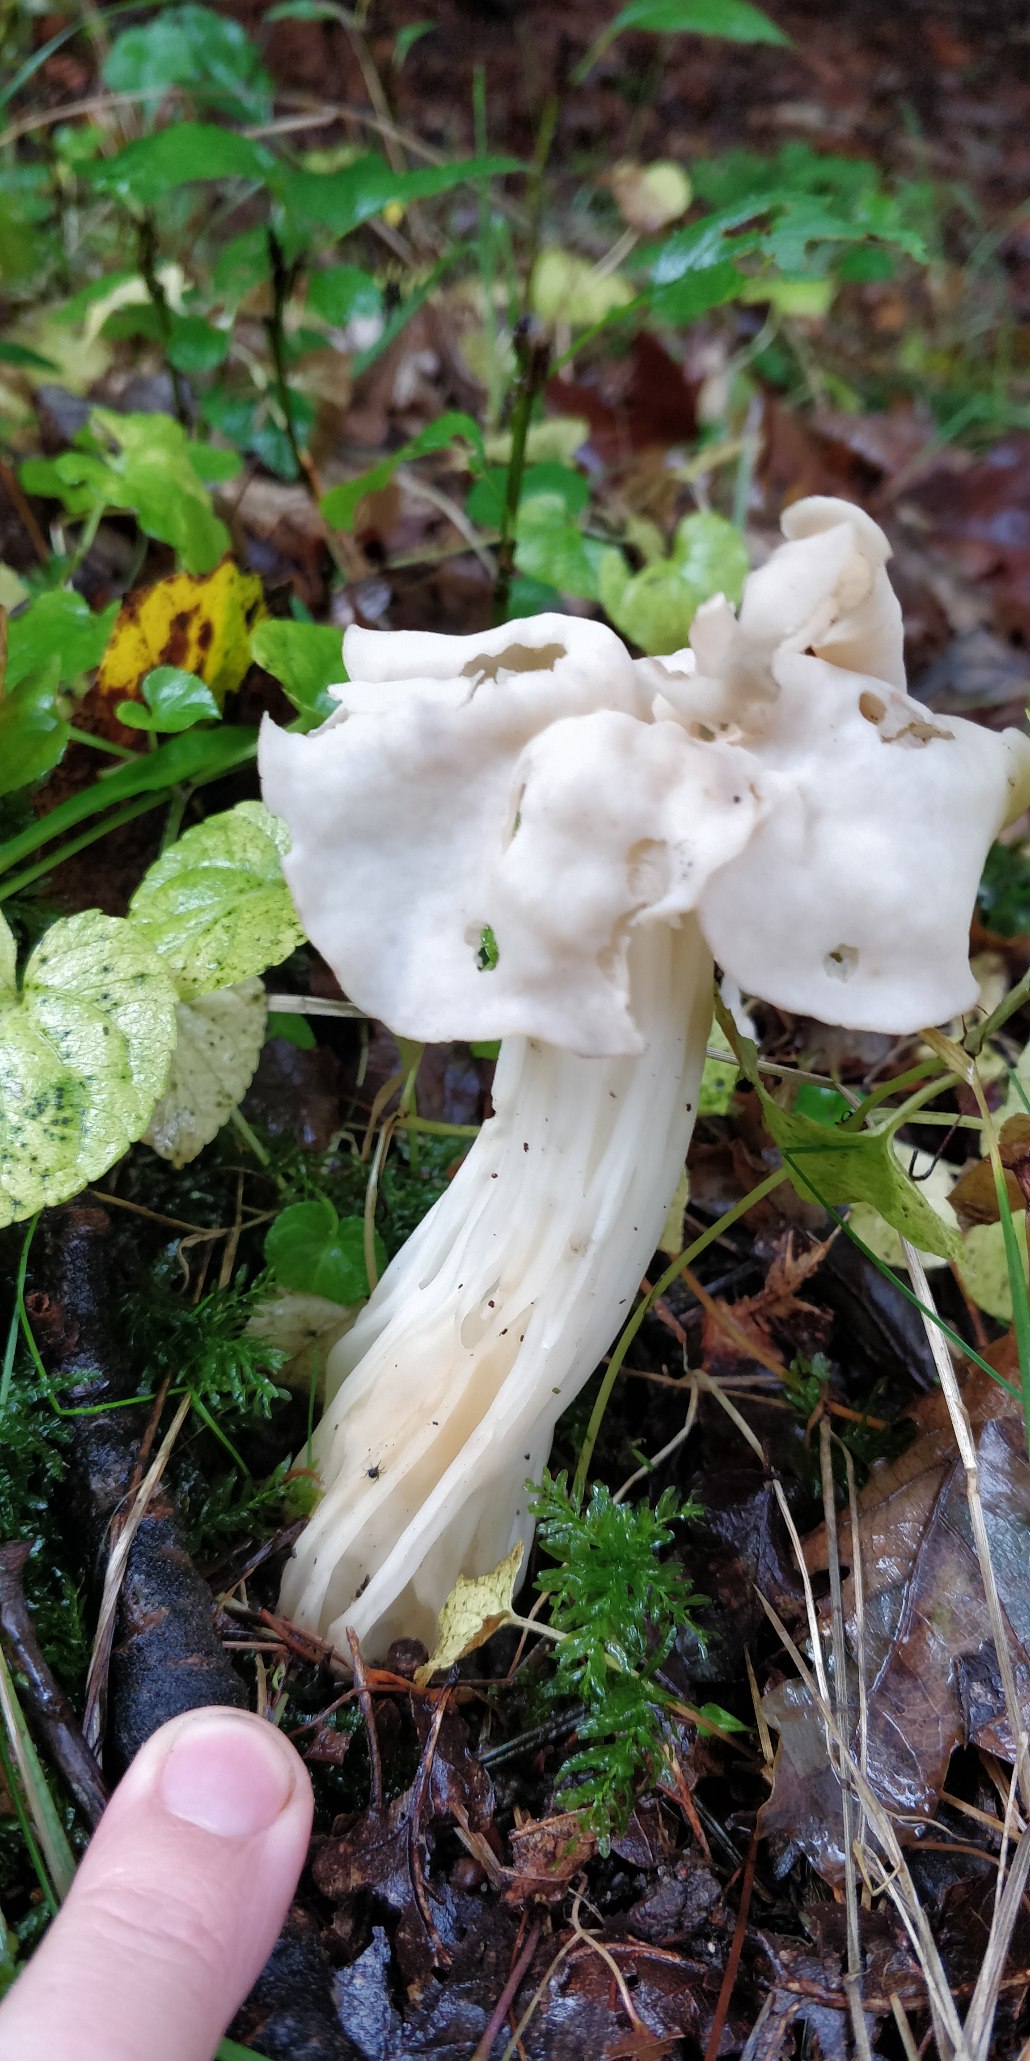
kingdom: Fungi
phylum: Ascomycota
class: Pezizomycetes
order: Pezizales
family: Helvellaceae
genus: Helvella
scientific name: Helvella crispa
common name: Kruset foldhat
